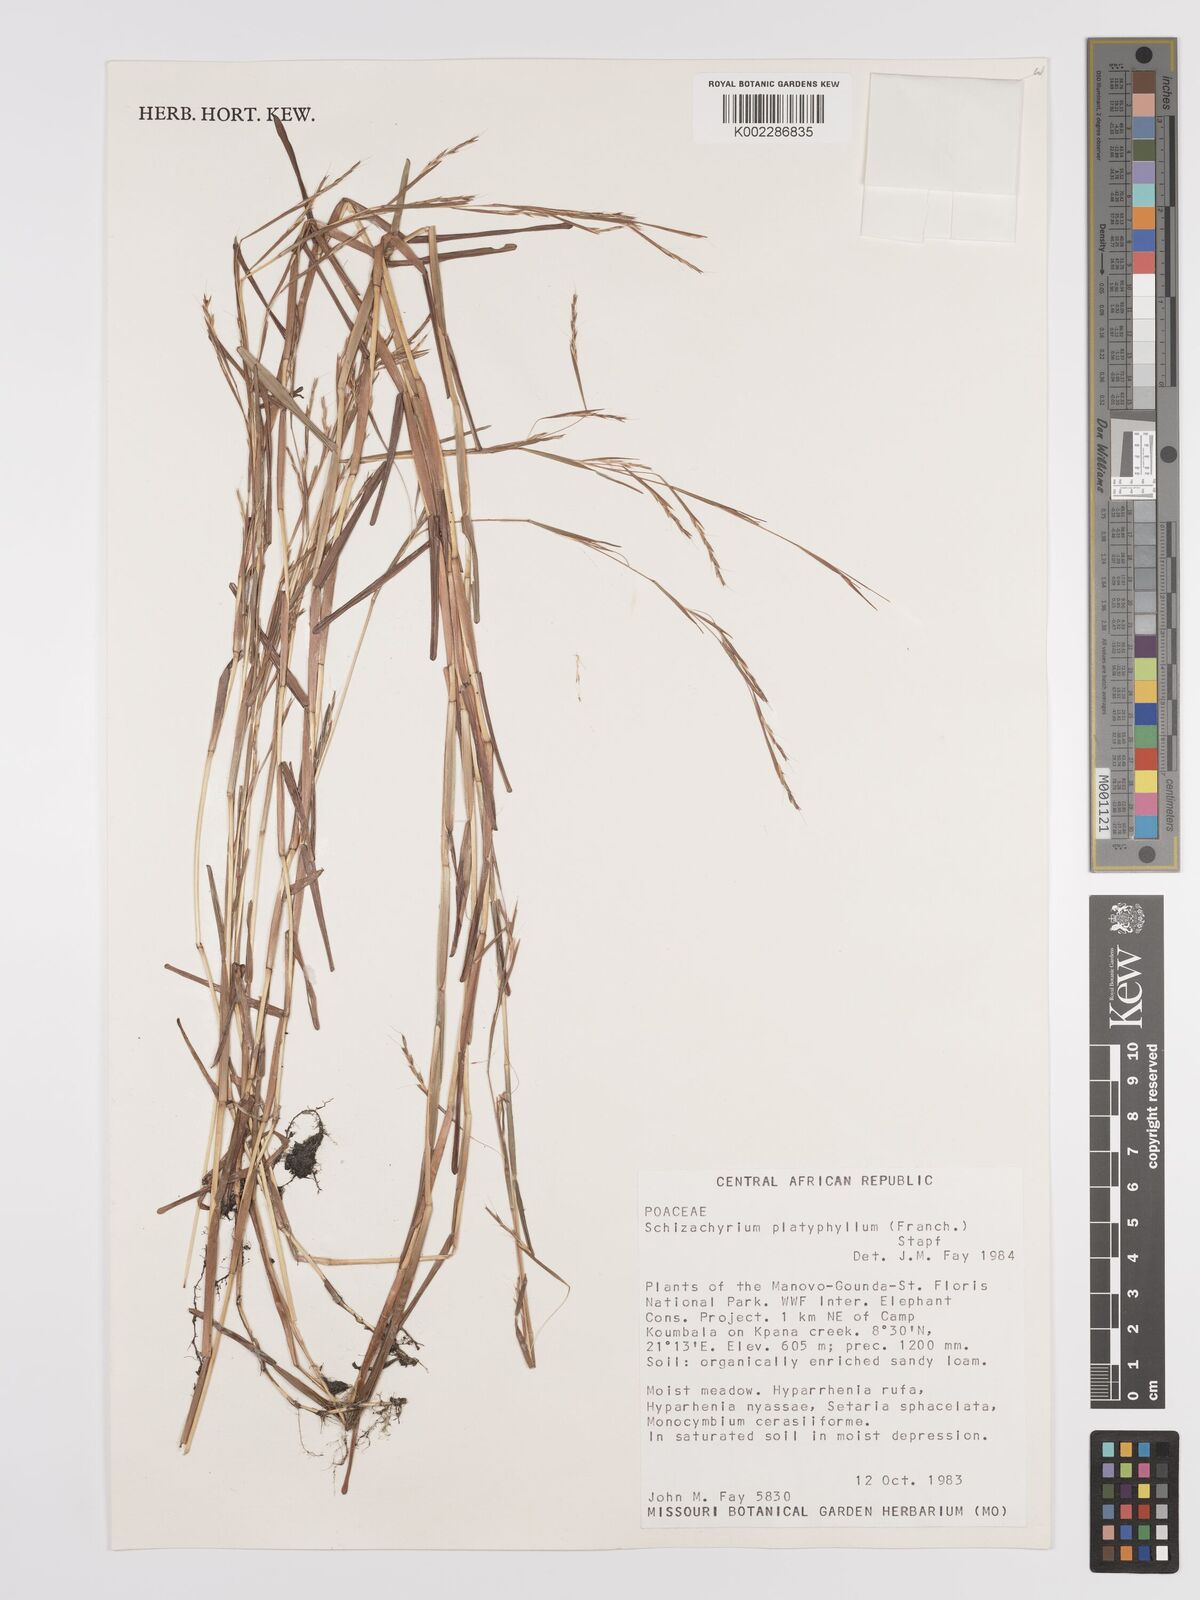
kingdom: Plantae
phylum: Tracheophyta
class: Liliopsida
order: Poales
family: Poaceae
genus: Schizachyrium
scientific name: Schizachyrium platyphyllum
